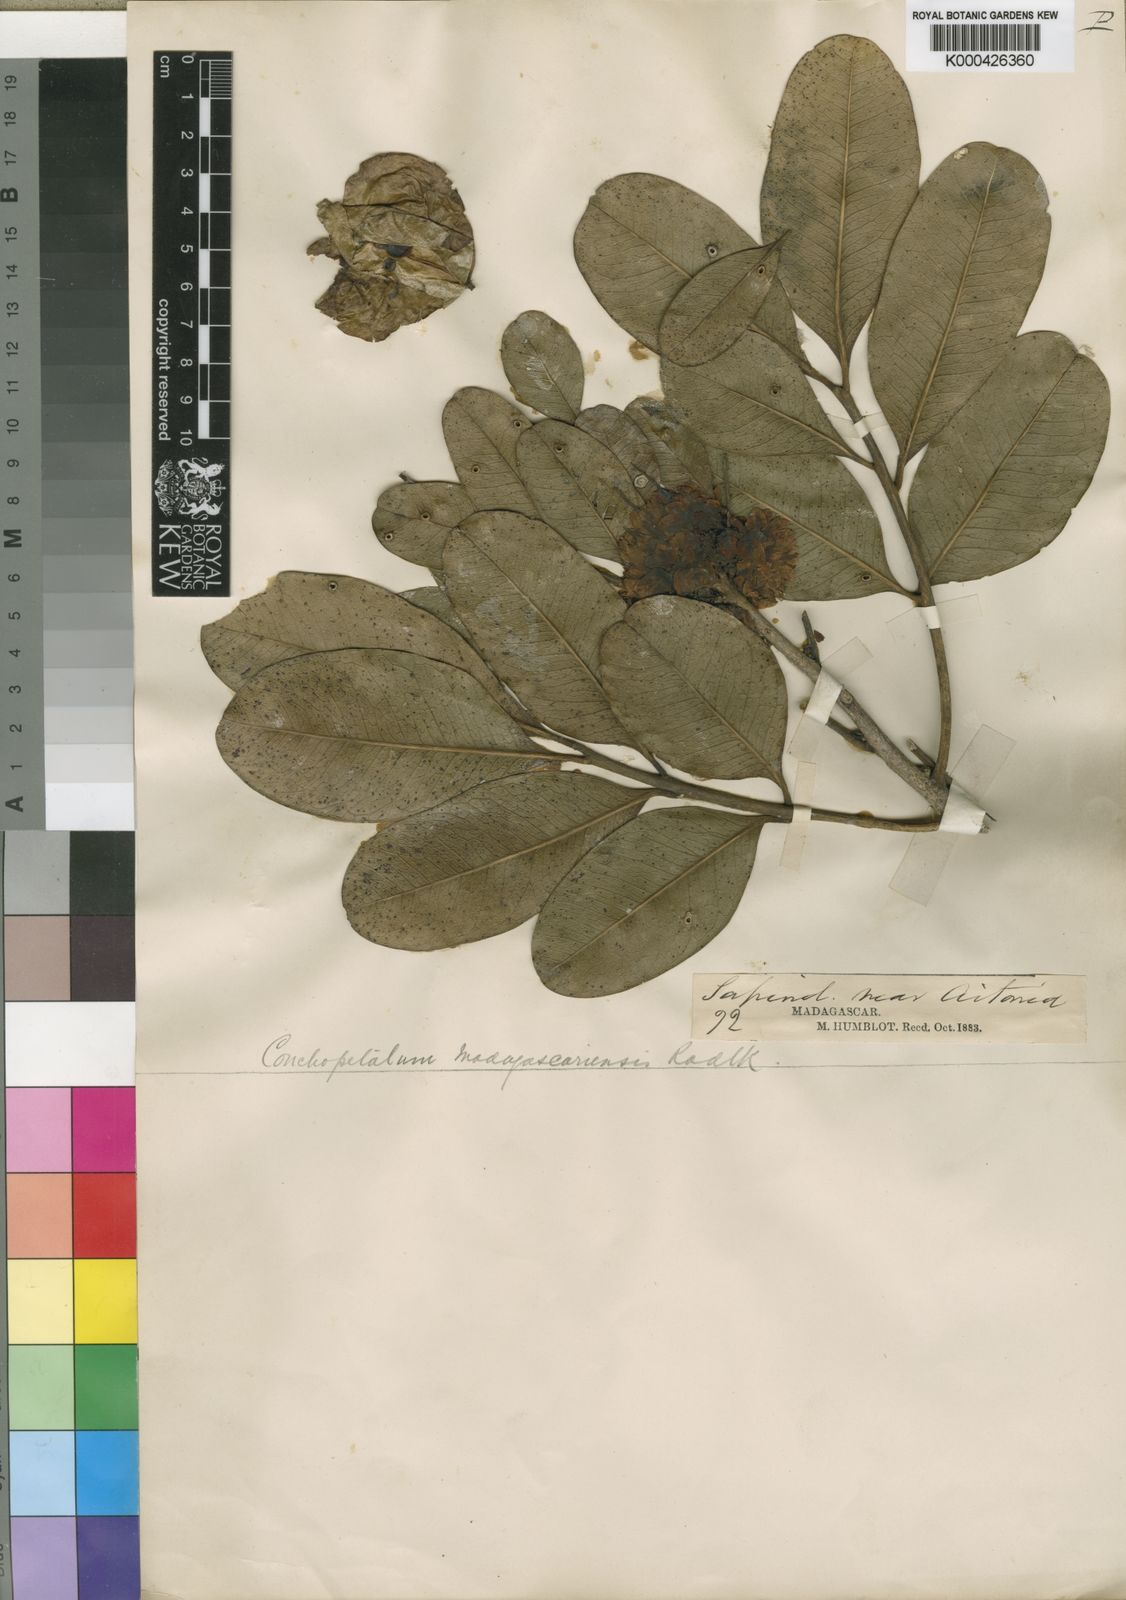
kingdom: Plantae
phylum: Tracheophyta
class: Magnoliopsida
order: Sapindales
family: Sapindaceae
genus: Conchopetalum
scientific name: Conchopetalum madagascariense
